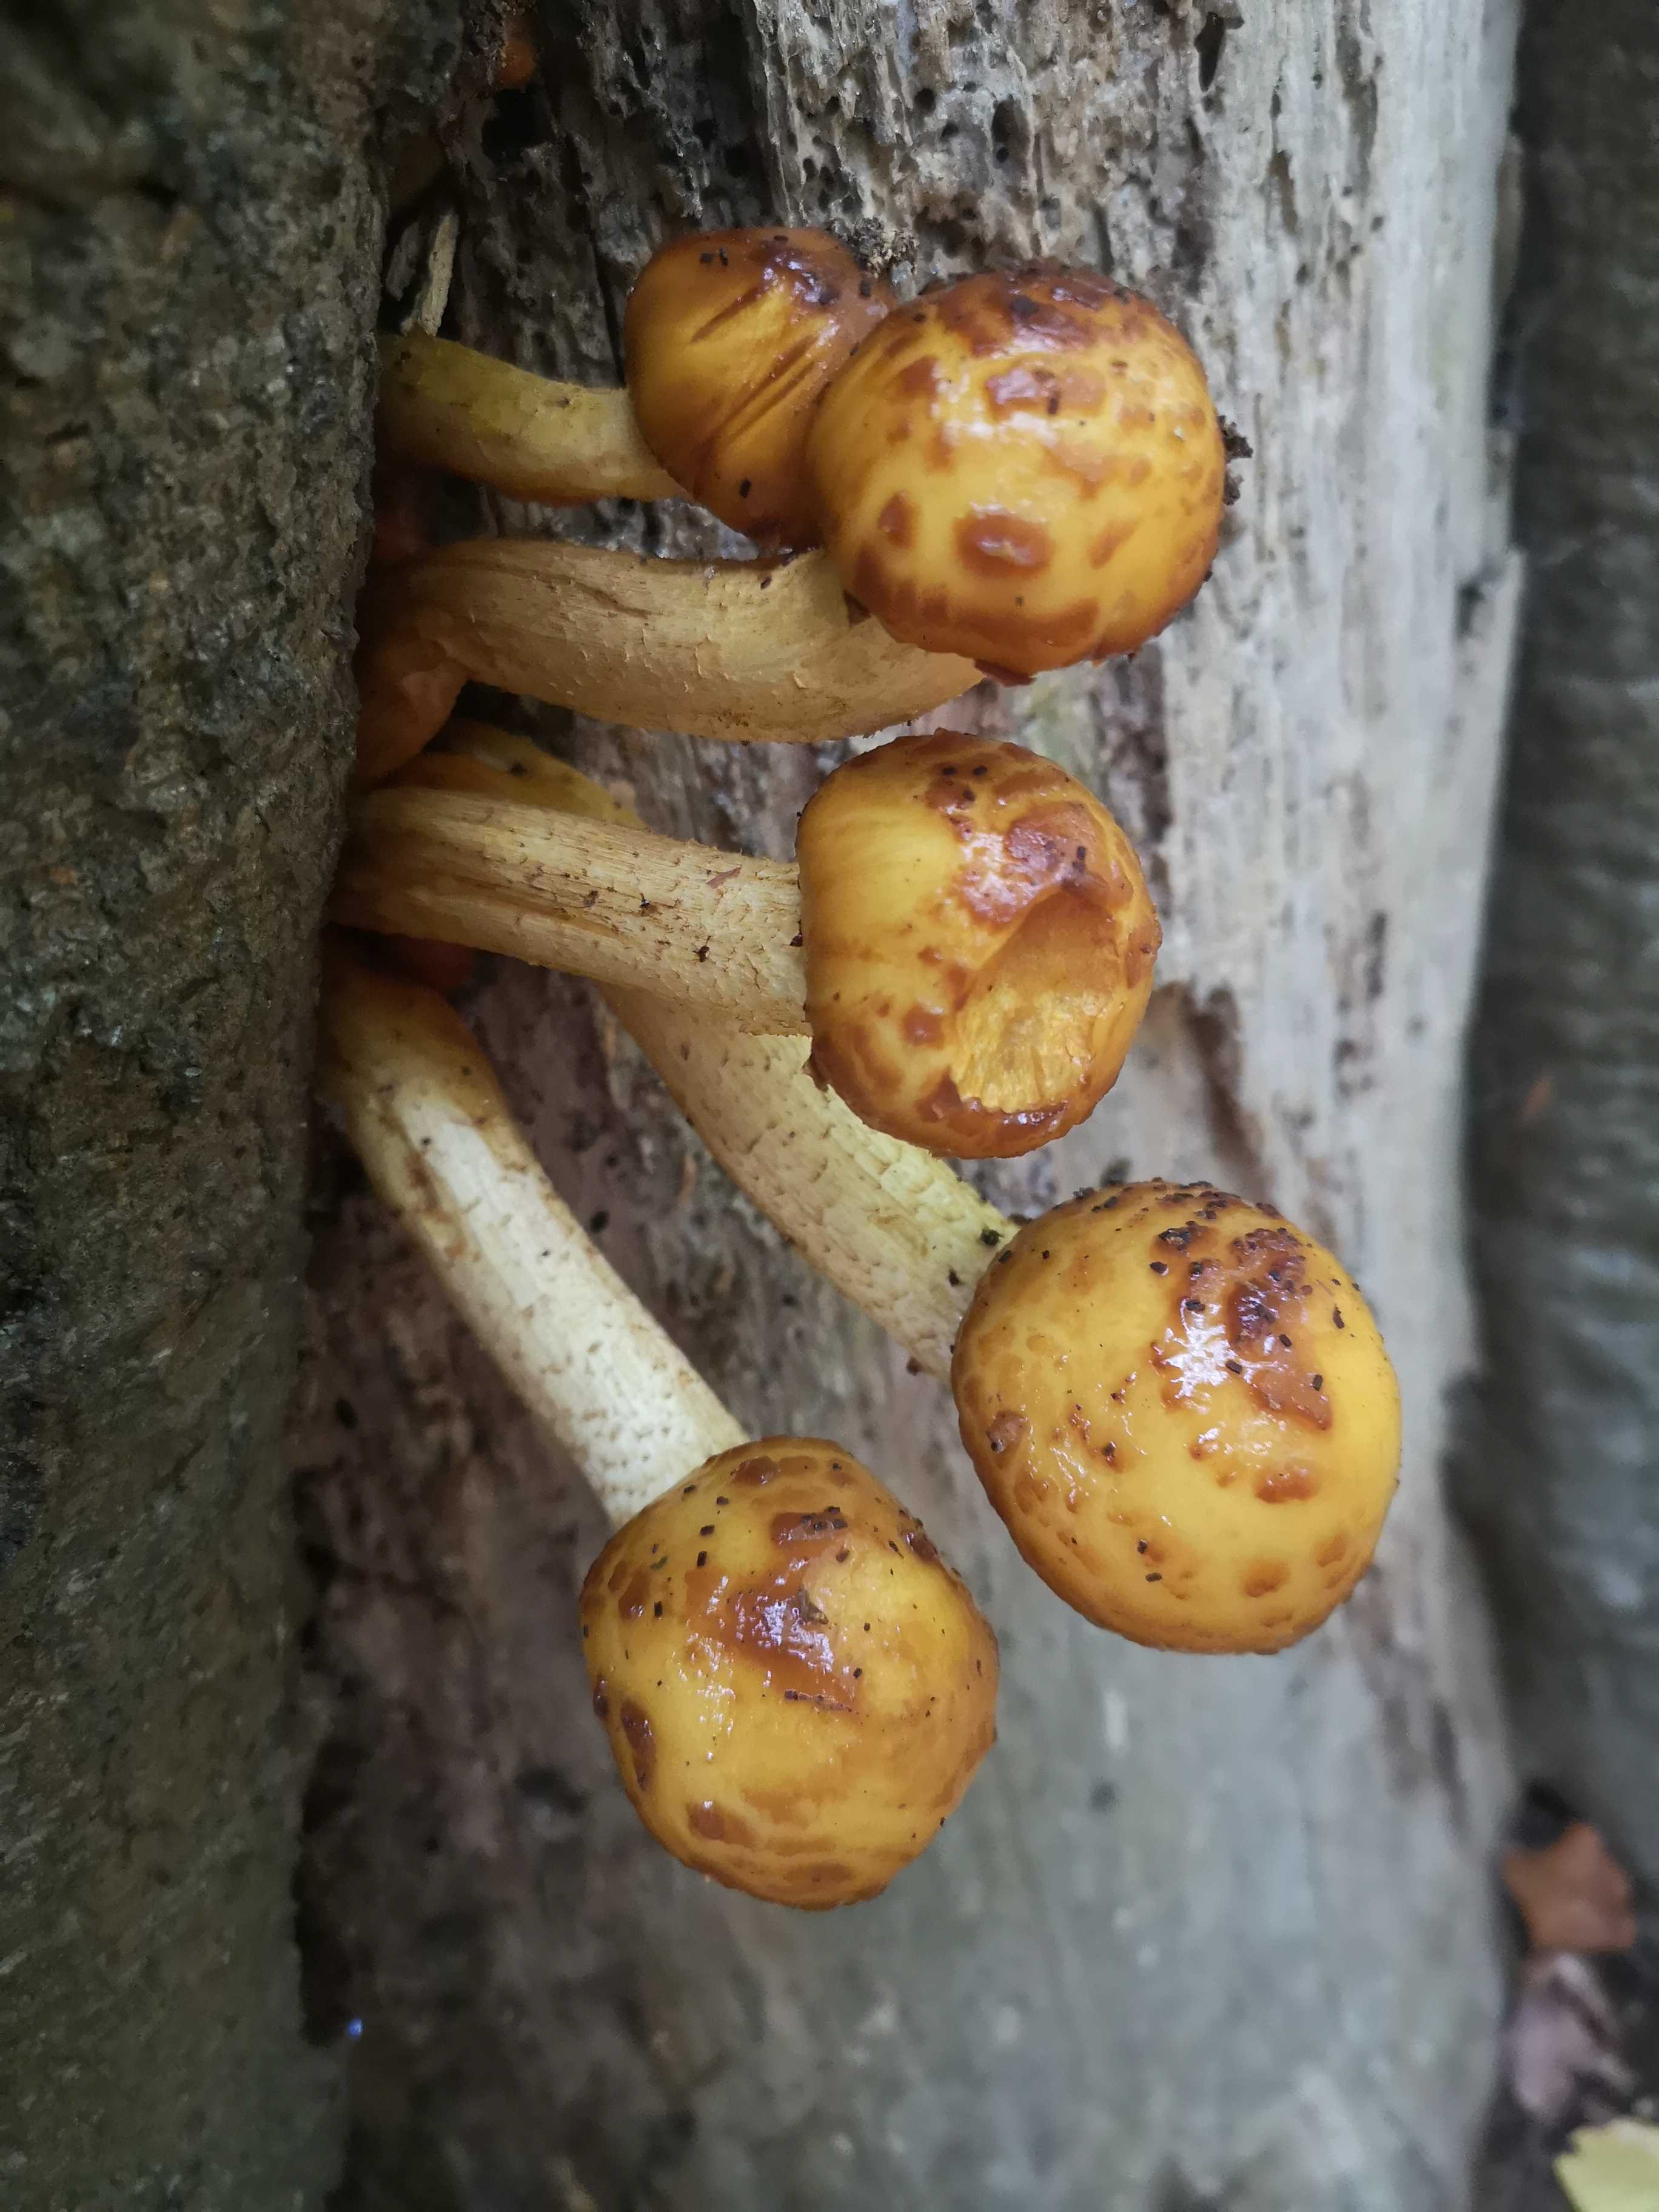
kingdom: Fungi
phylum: Basidiomycota
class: Agaricomycetes
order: Agaricales
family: Strophariaceae
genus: Pholiota
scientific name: Pholiota adiposa
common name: højtsiddende skælhat
